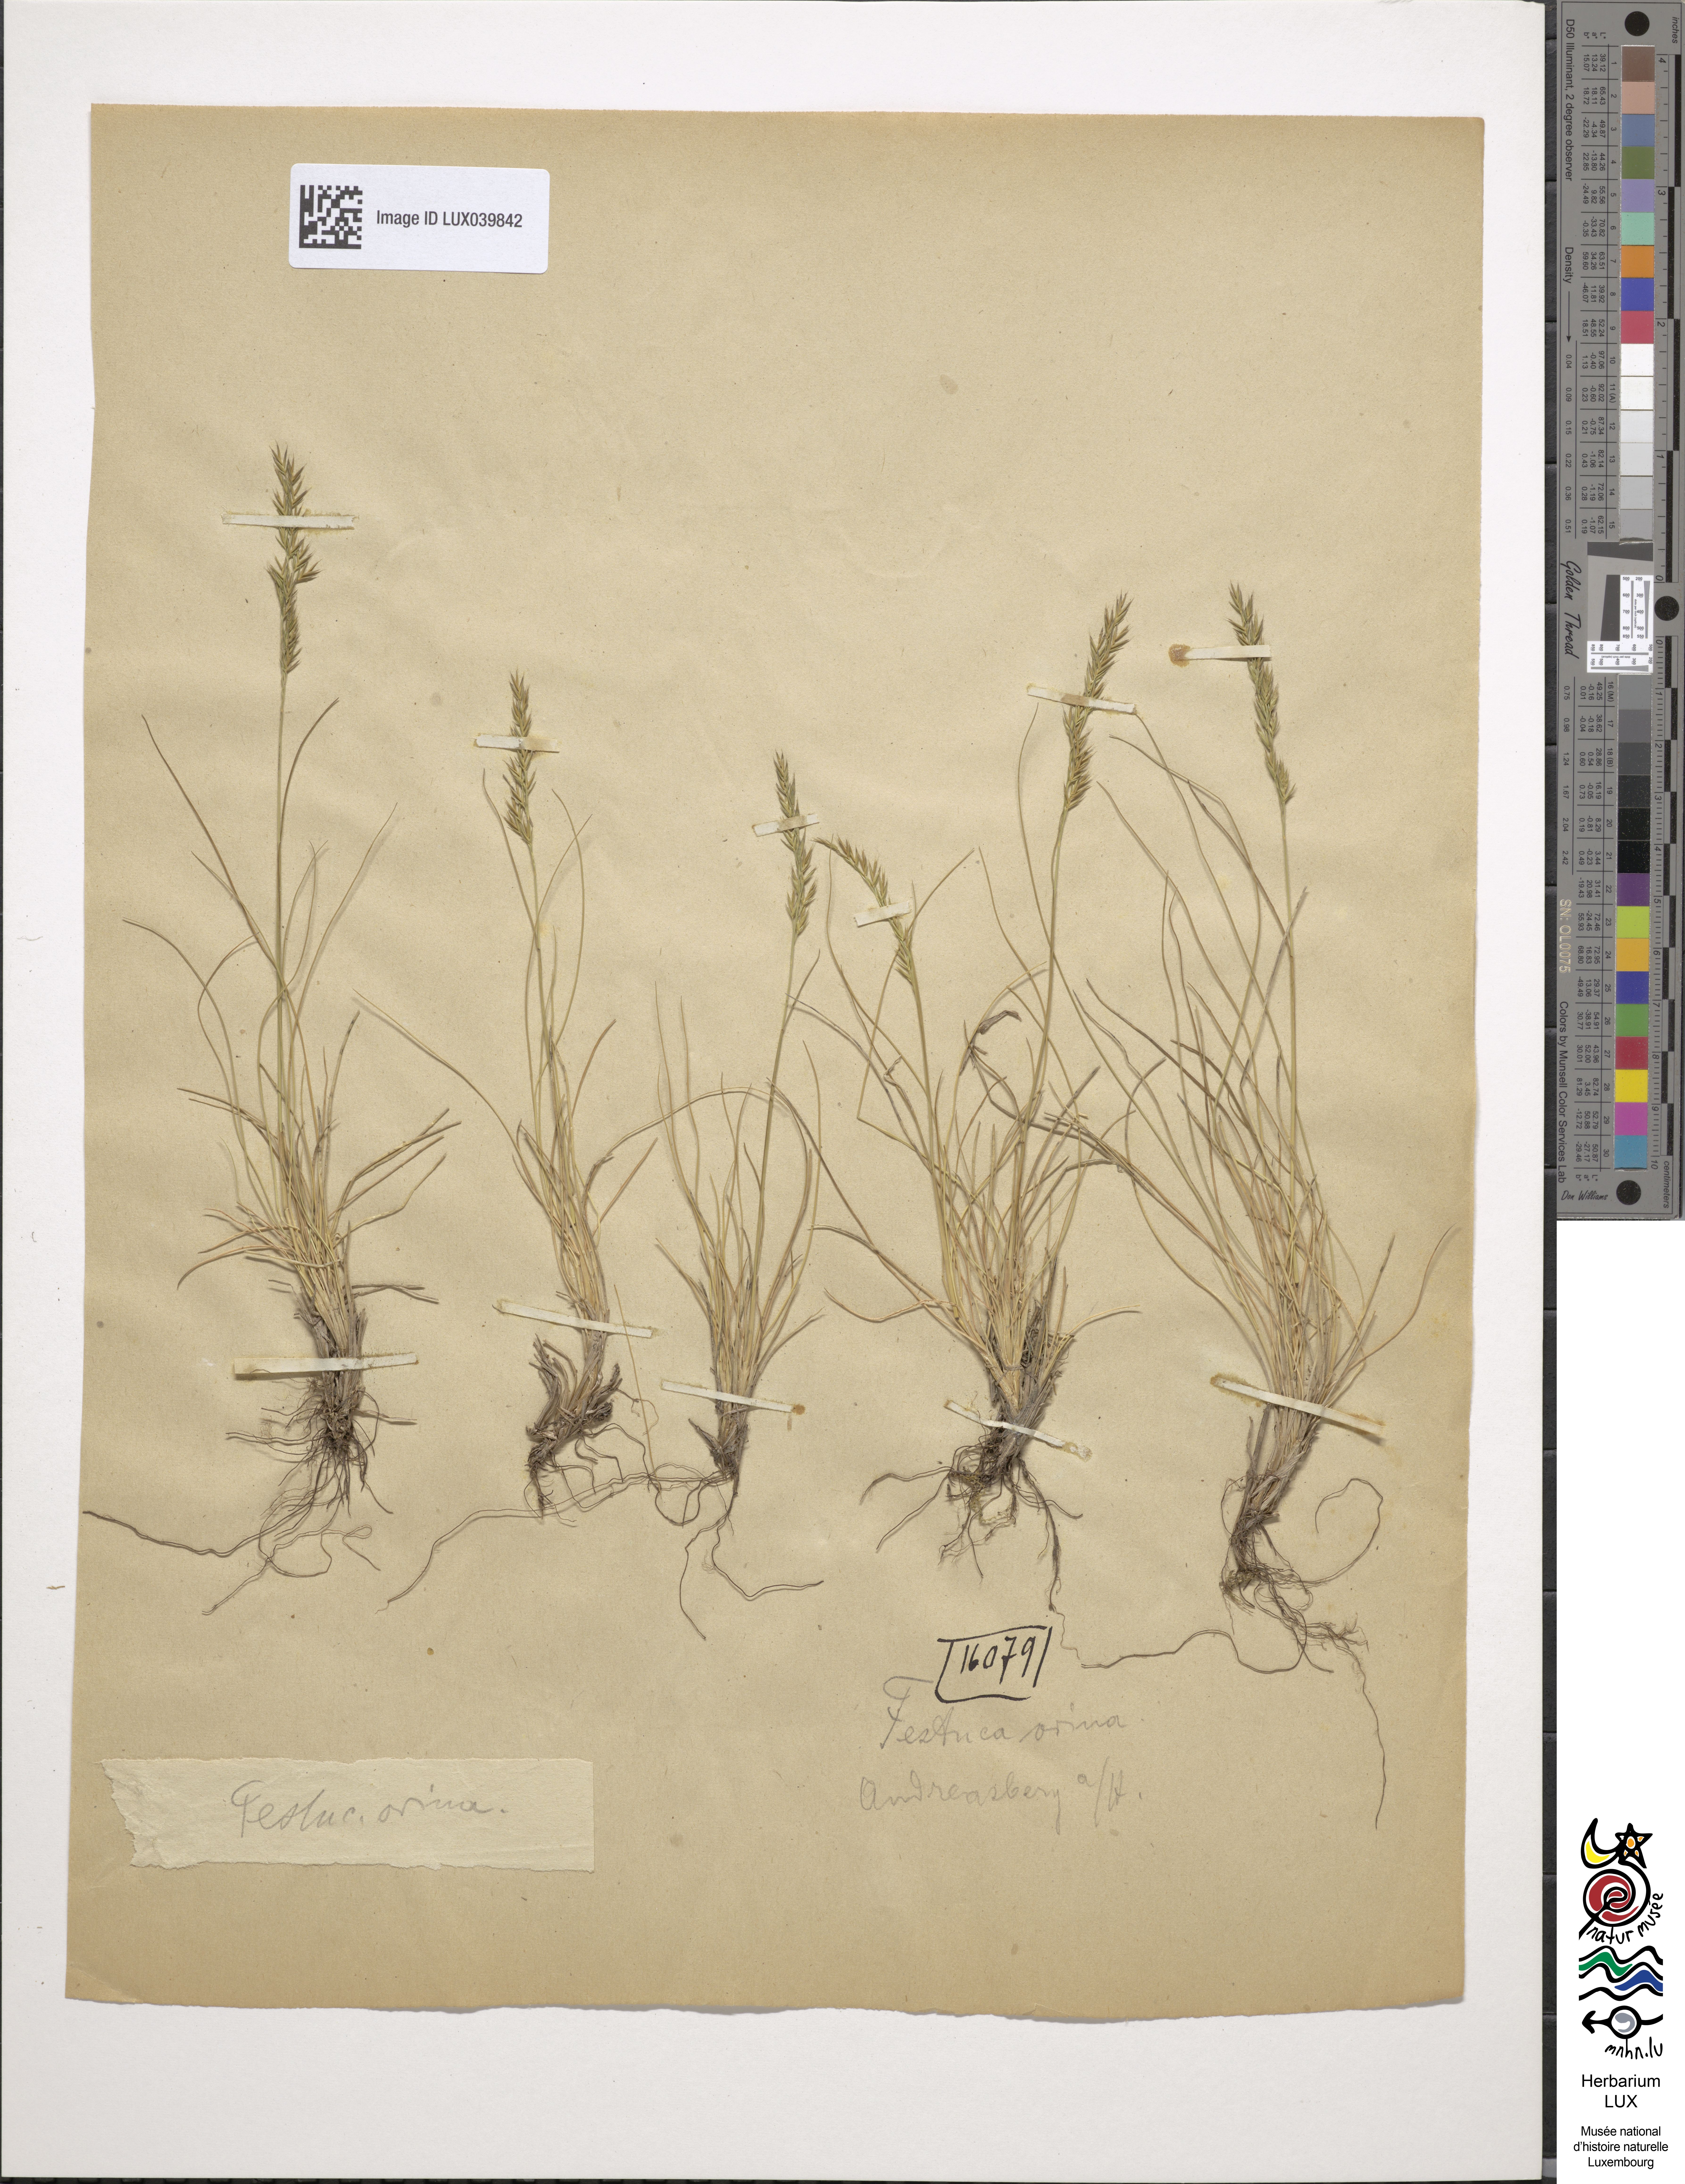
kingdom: Plantae
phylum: Tracheophyta
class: Liliopsida
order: Poales
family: Poaceae
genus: Festuca
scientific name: Festuca ovina
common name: Sheep fescue
